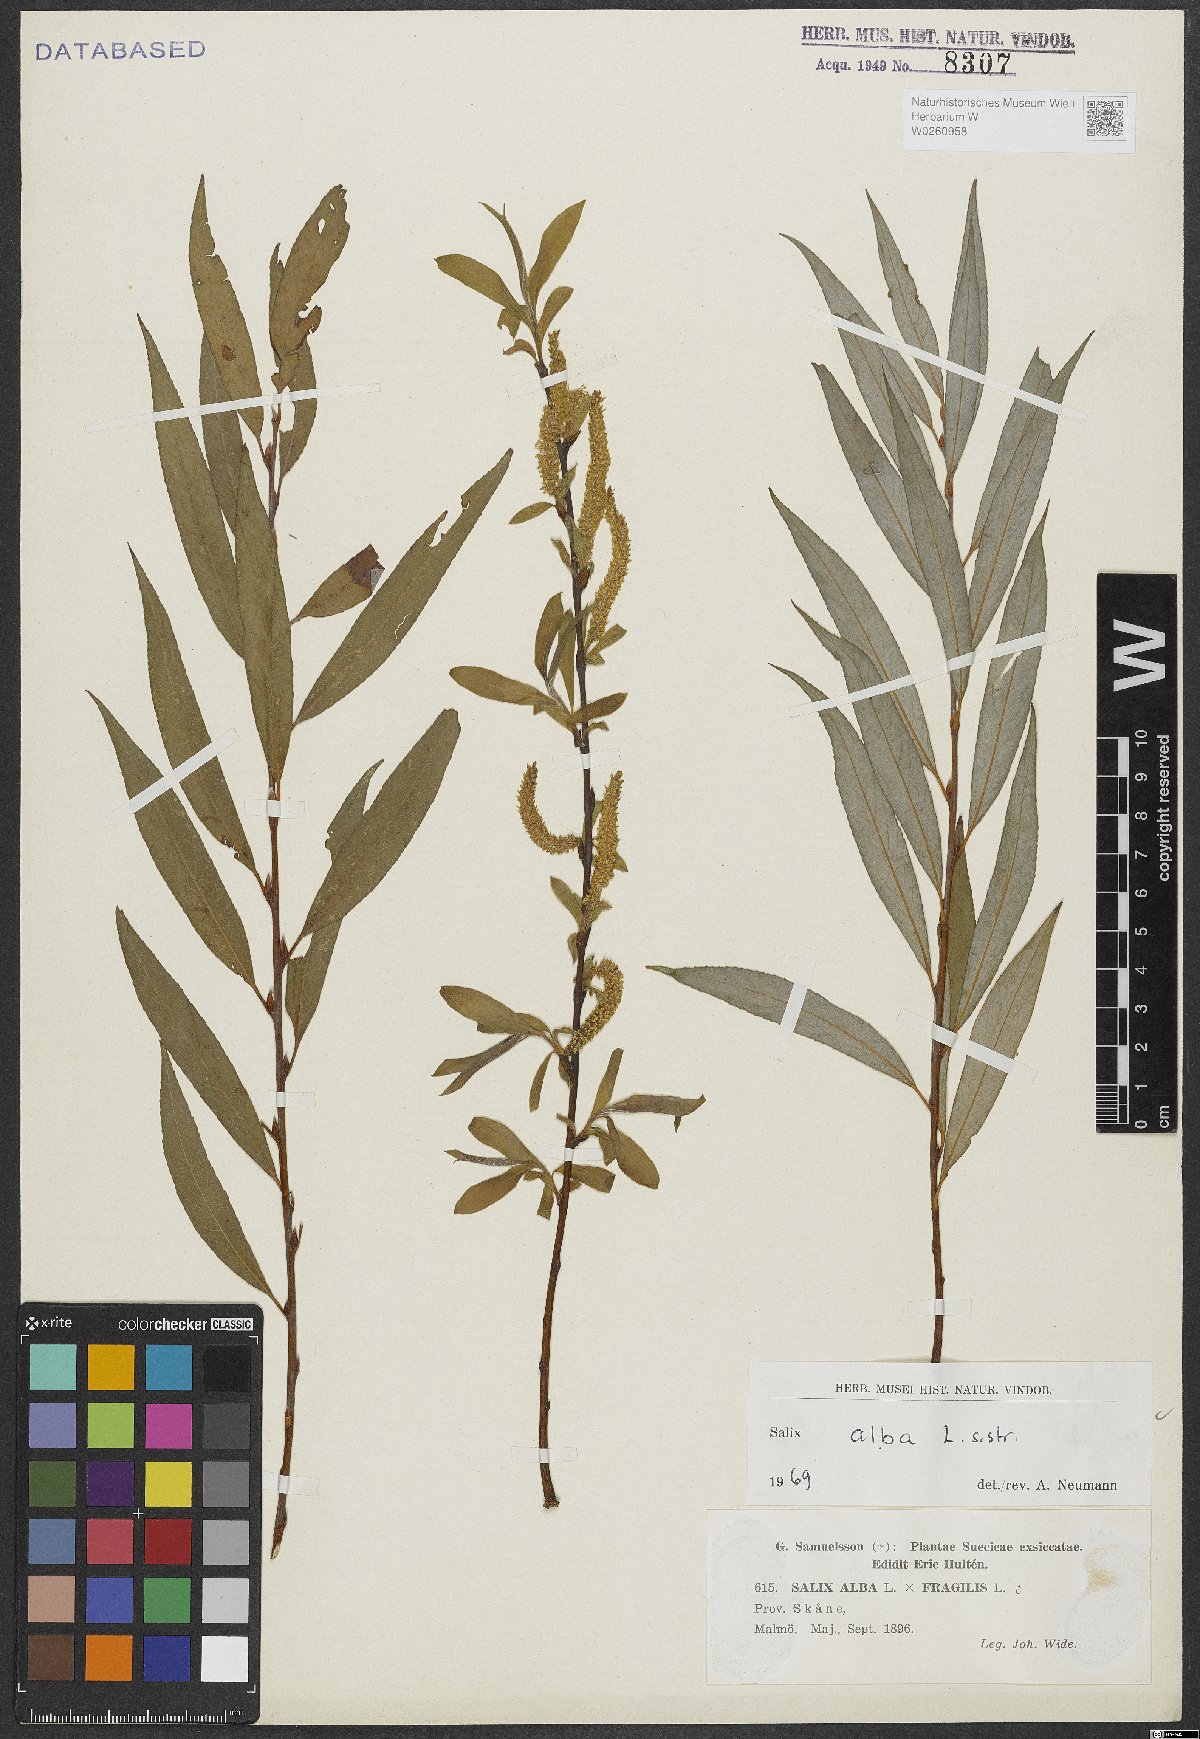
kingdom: Plantae
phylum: Tracheophyta
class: Magnoliopsida
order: Malpighiales
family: Salicaceae
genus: Salix
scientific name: Salix alba
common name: White willow
